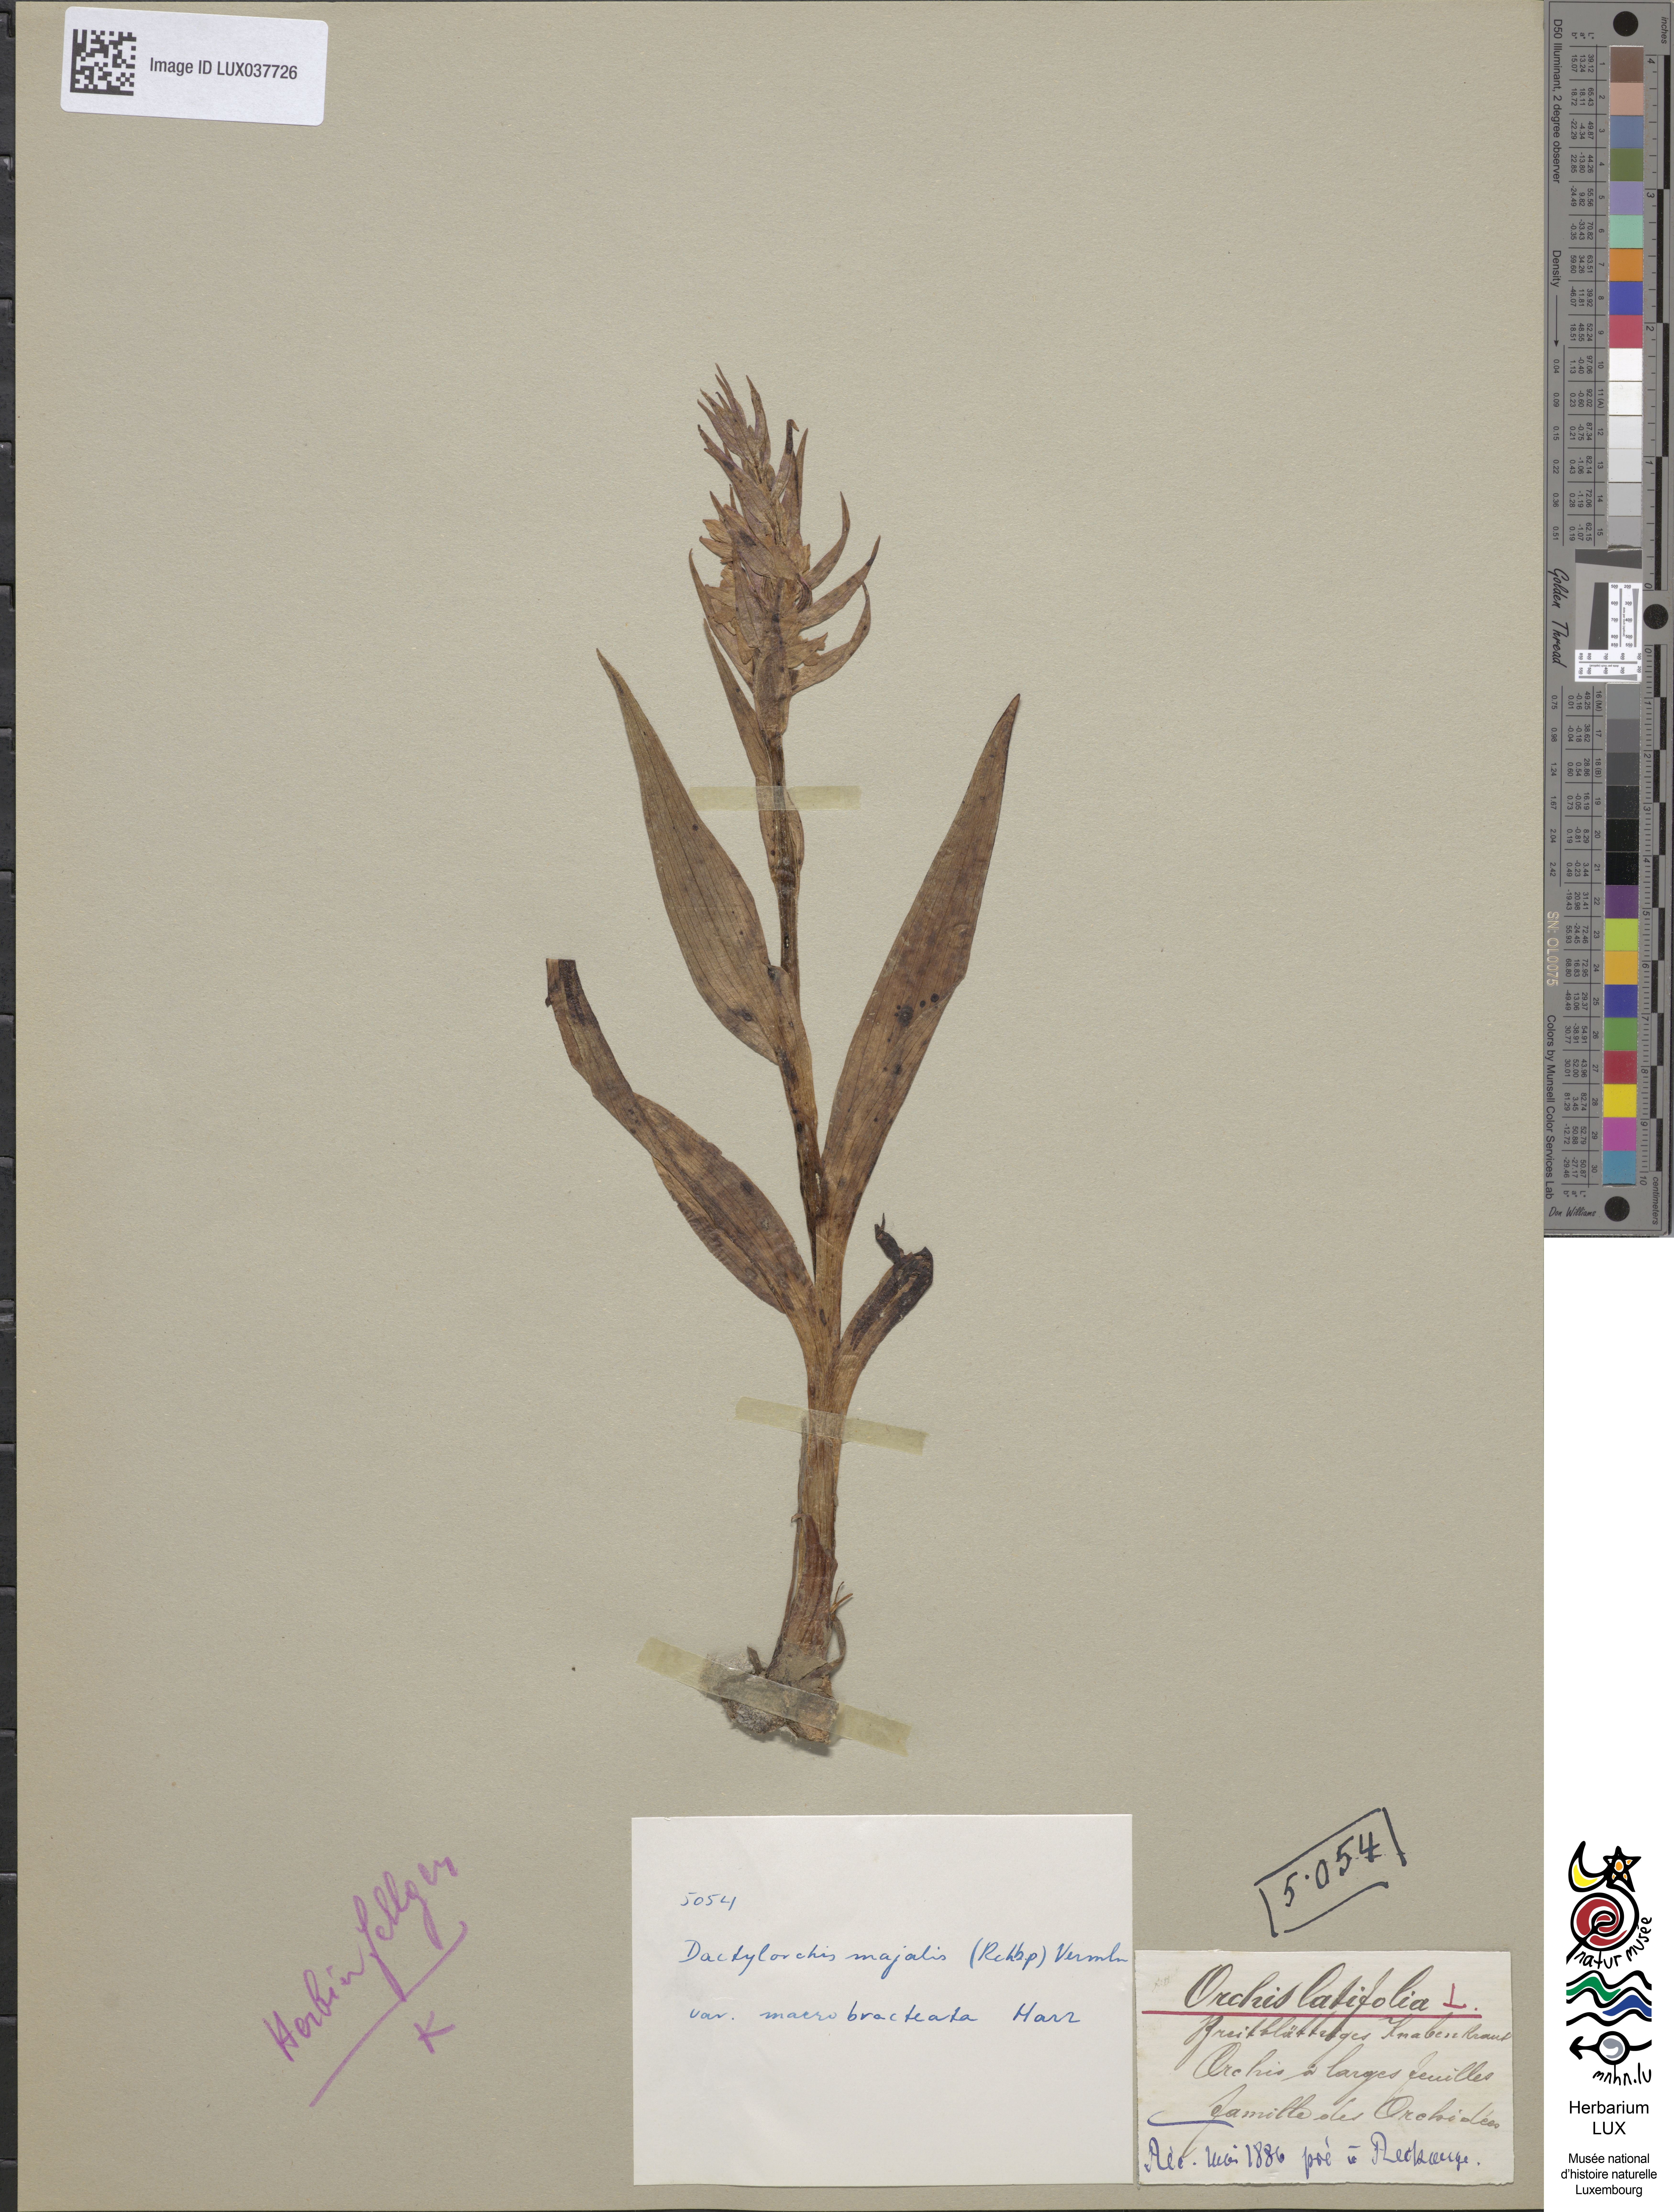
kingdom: Plantae
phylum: Tracheophyta
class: Liliopsida
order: Asparagales
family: Orchidaceae
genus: Dactylorhiza
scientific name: Dactylorhiza incarnata
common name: Early marsh-orchid
